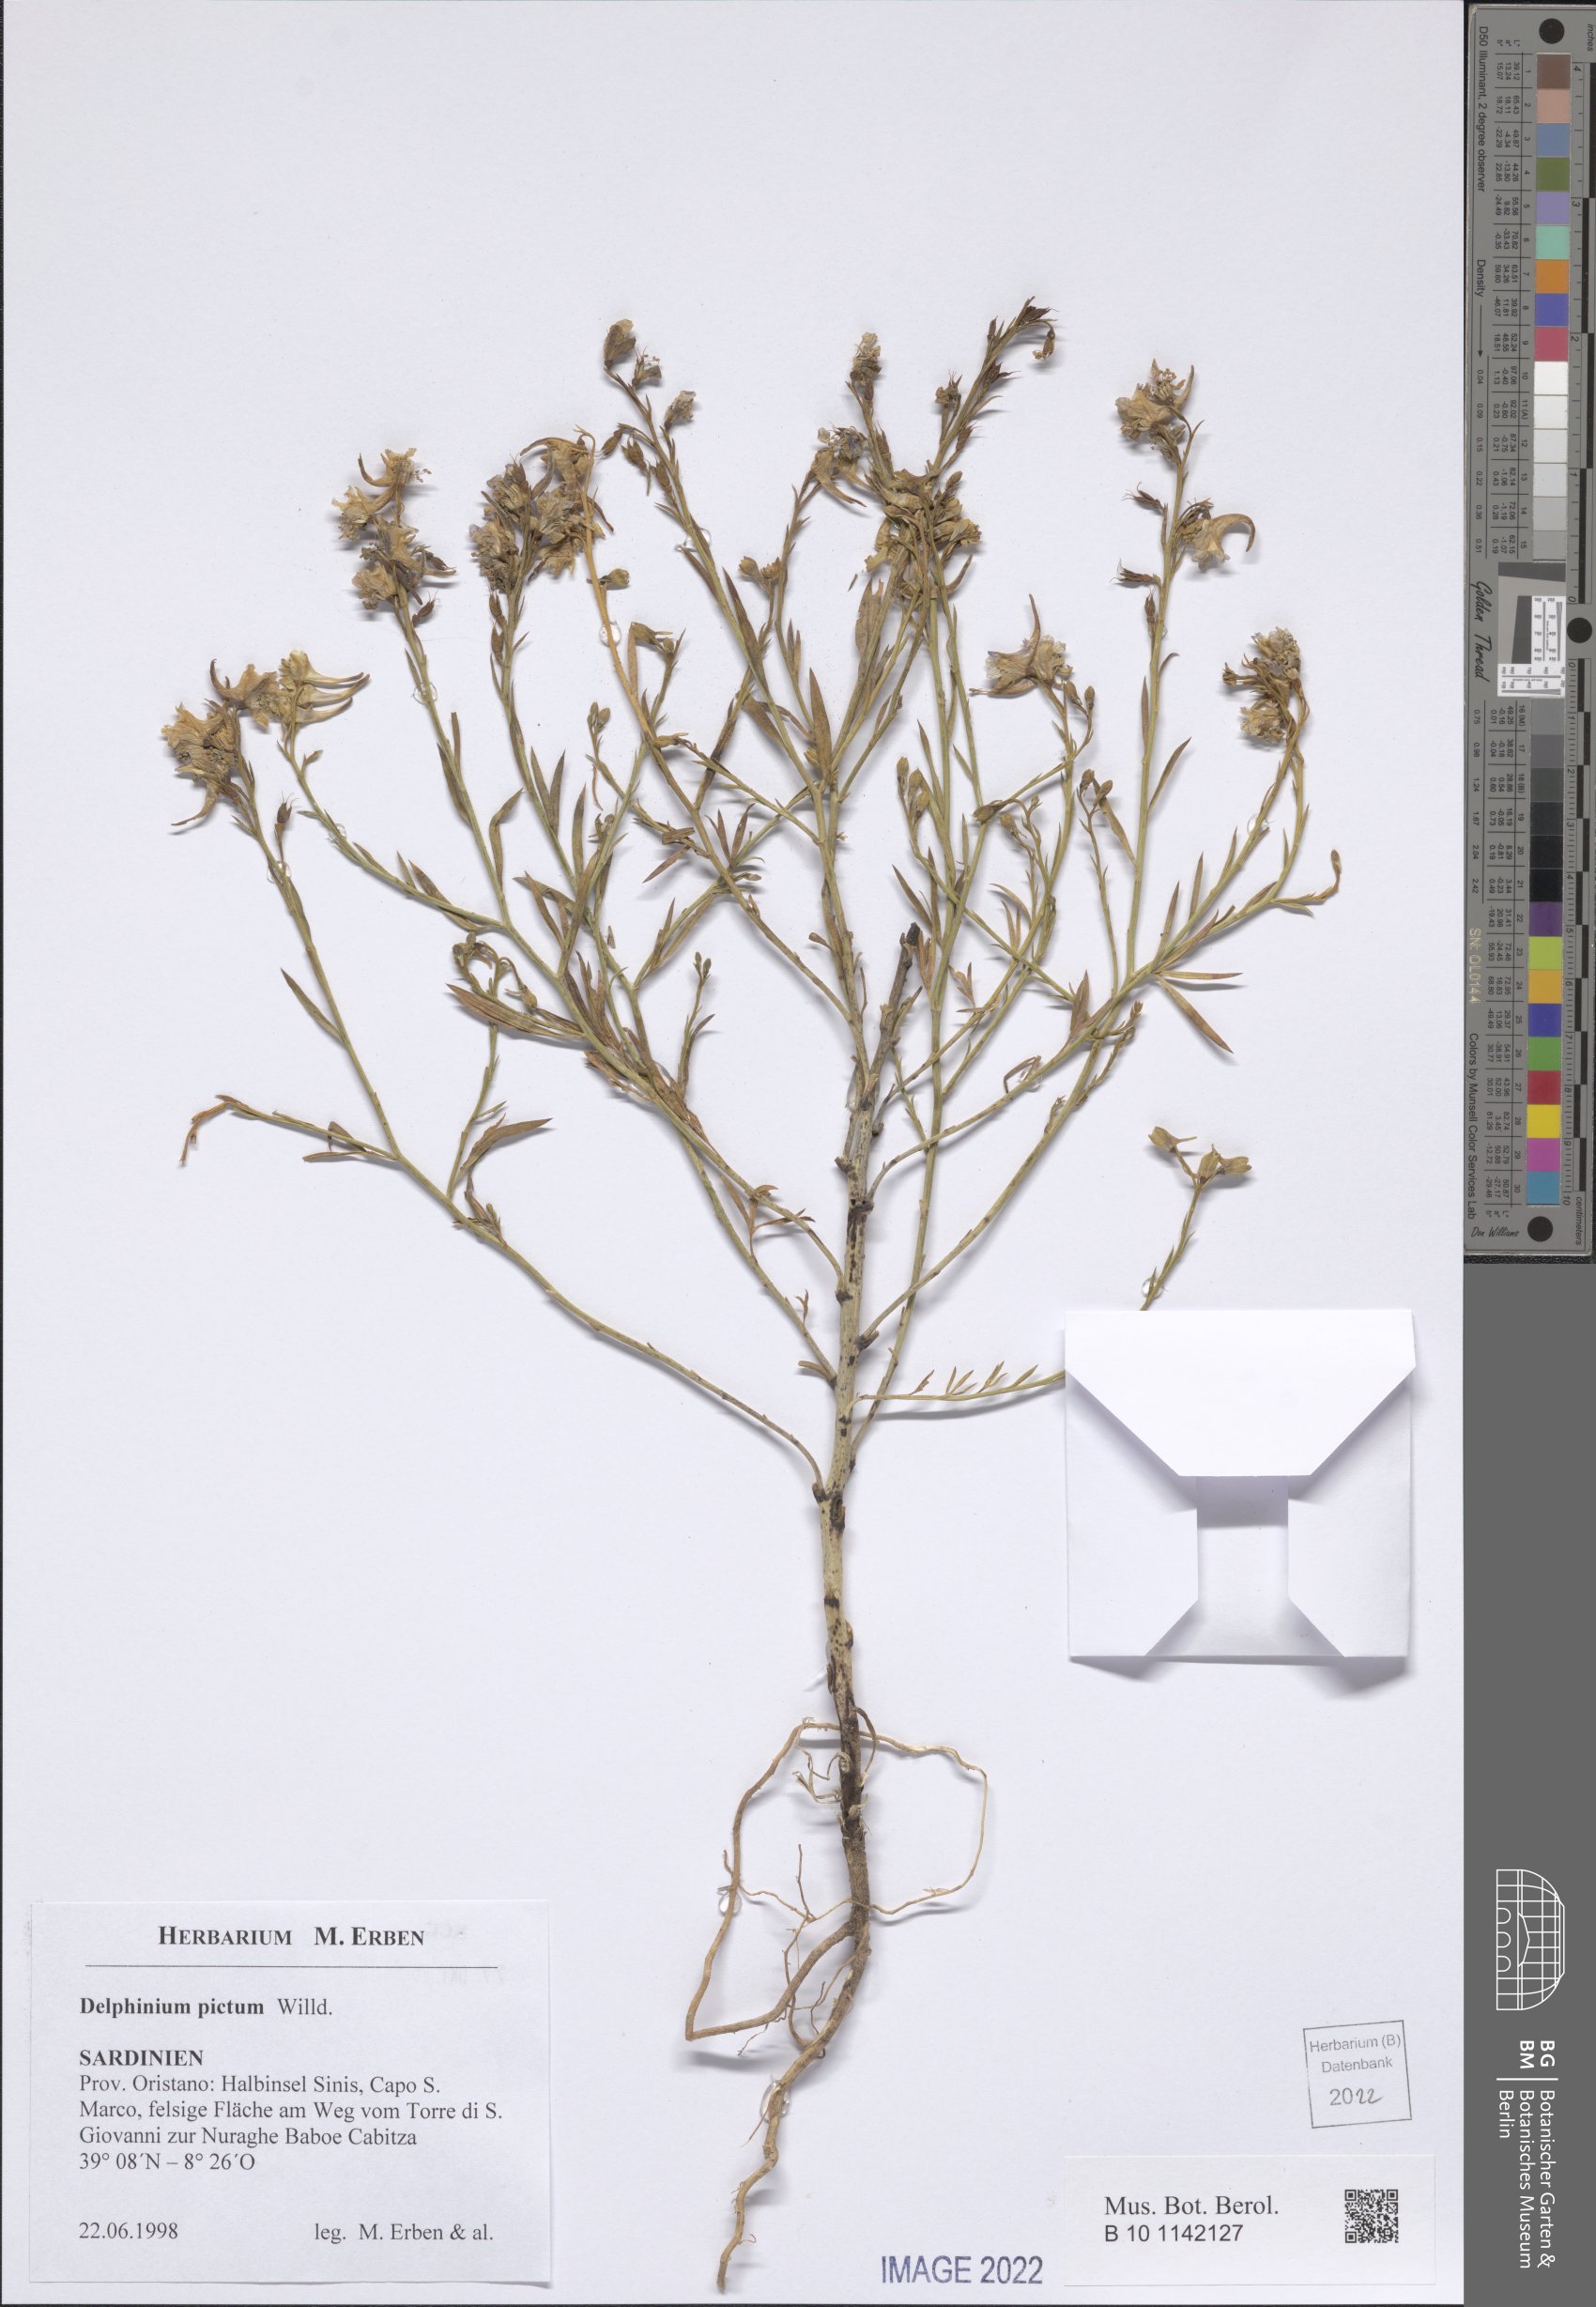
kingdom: Plantae
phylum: Tracheophyta
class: Magnoliopsida
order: Ranunculales
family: Ranunculaceae
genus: Staphisagria
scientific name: Staphisagria picta
